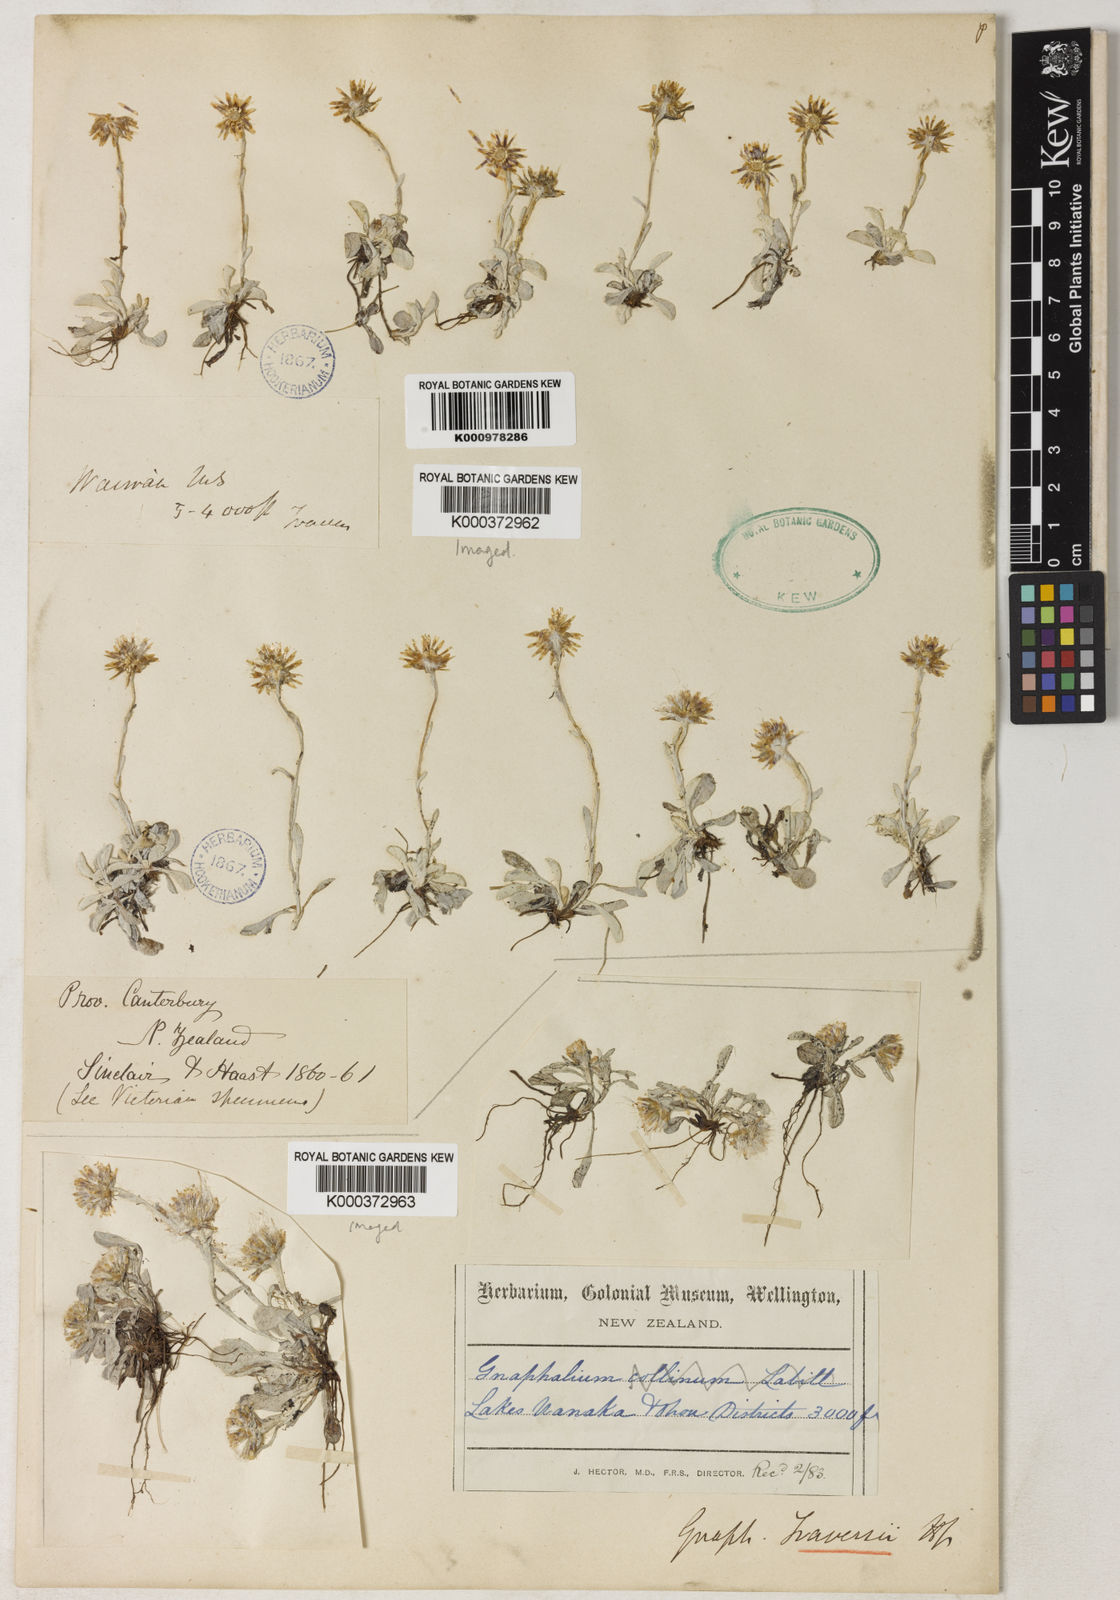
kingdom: Plantae
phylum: Tracheophyta
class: Magnoliopsida
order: Asterales
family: Asteraceae
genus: Euchiton
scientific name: Euchiton traversii
